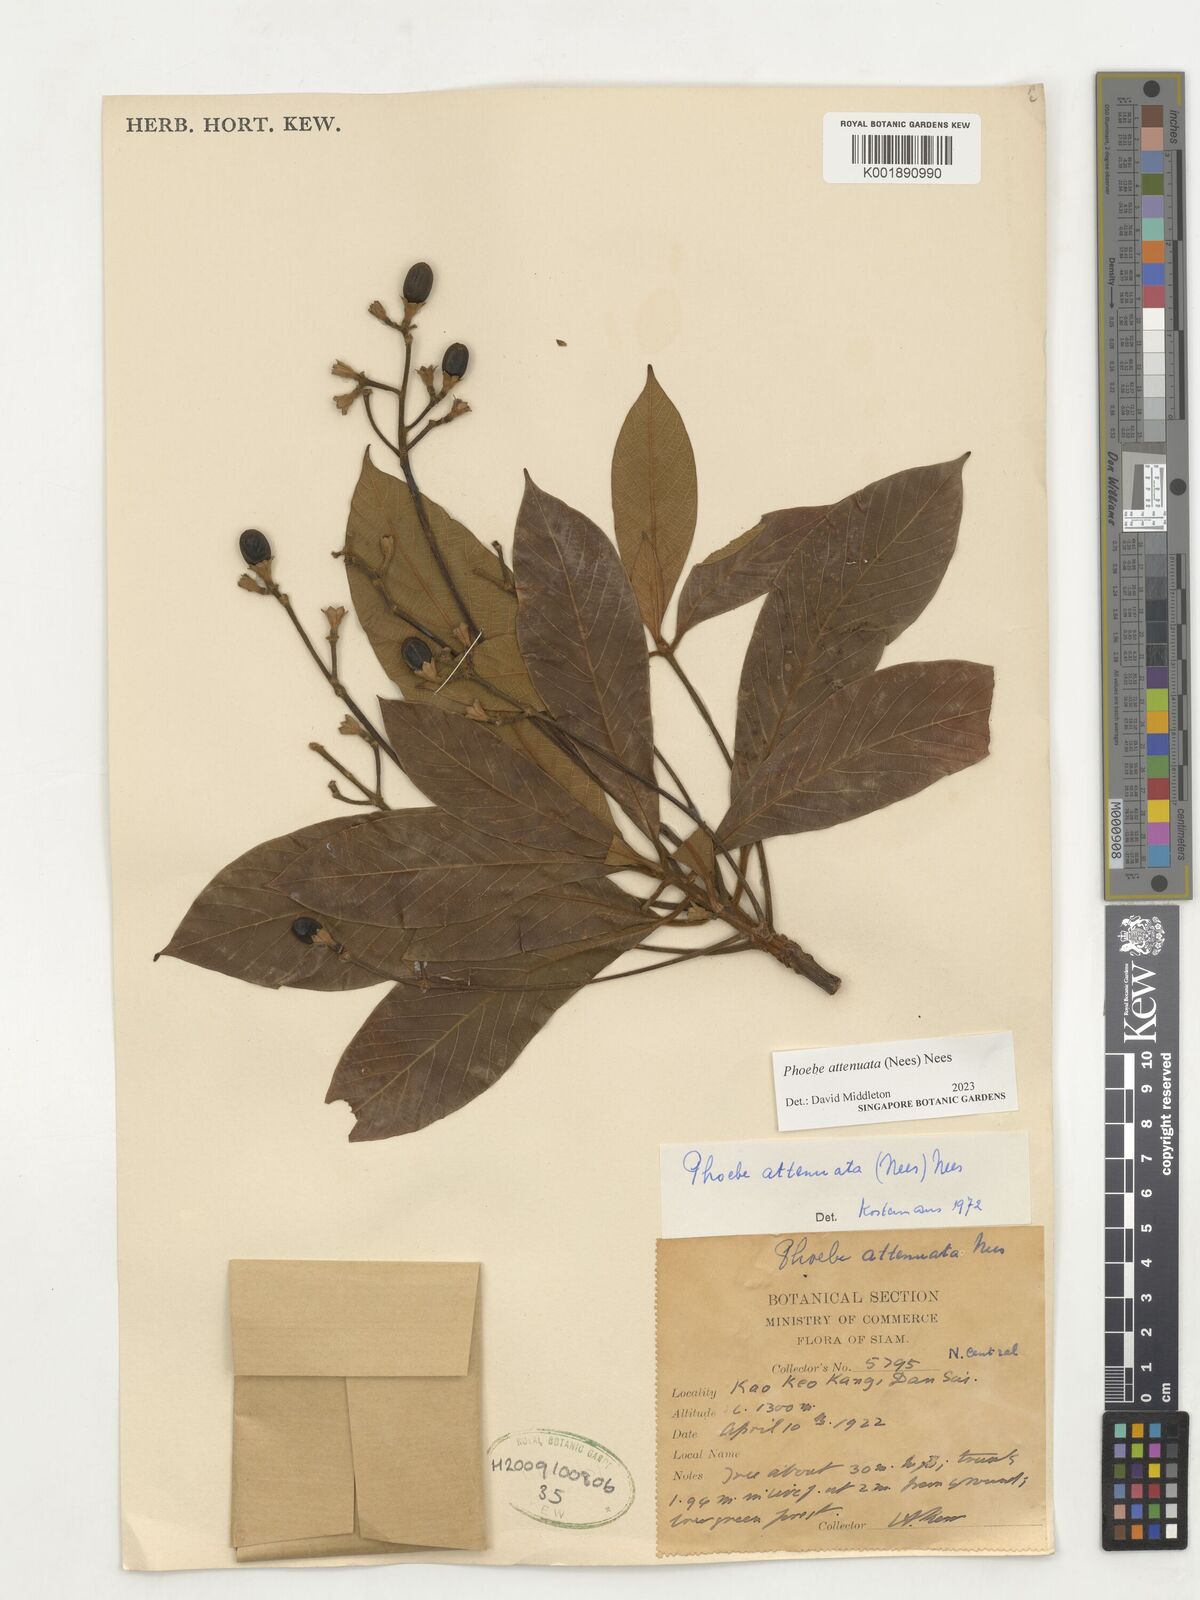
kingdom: Plantae
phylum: Tracheophyta
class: Magnoliopsida
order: Laurales
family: Lauraceae
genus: Phoebe
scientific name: Phoebe attenuata
